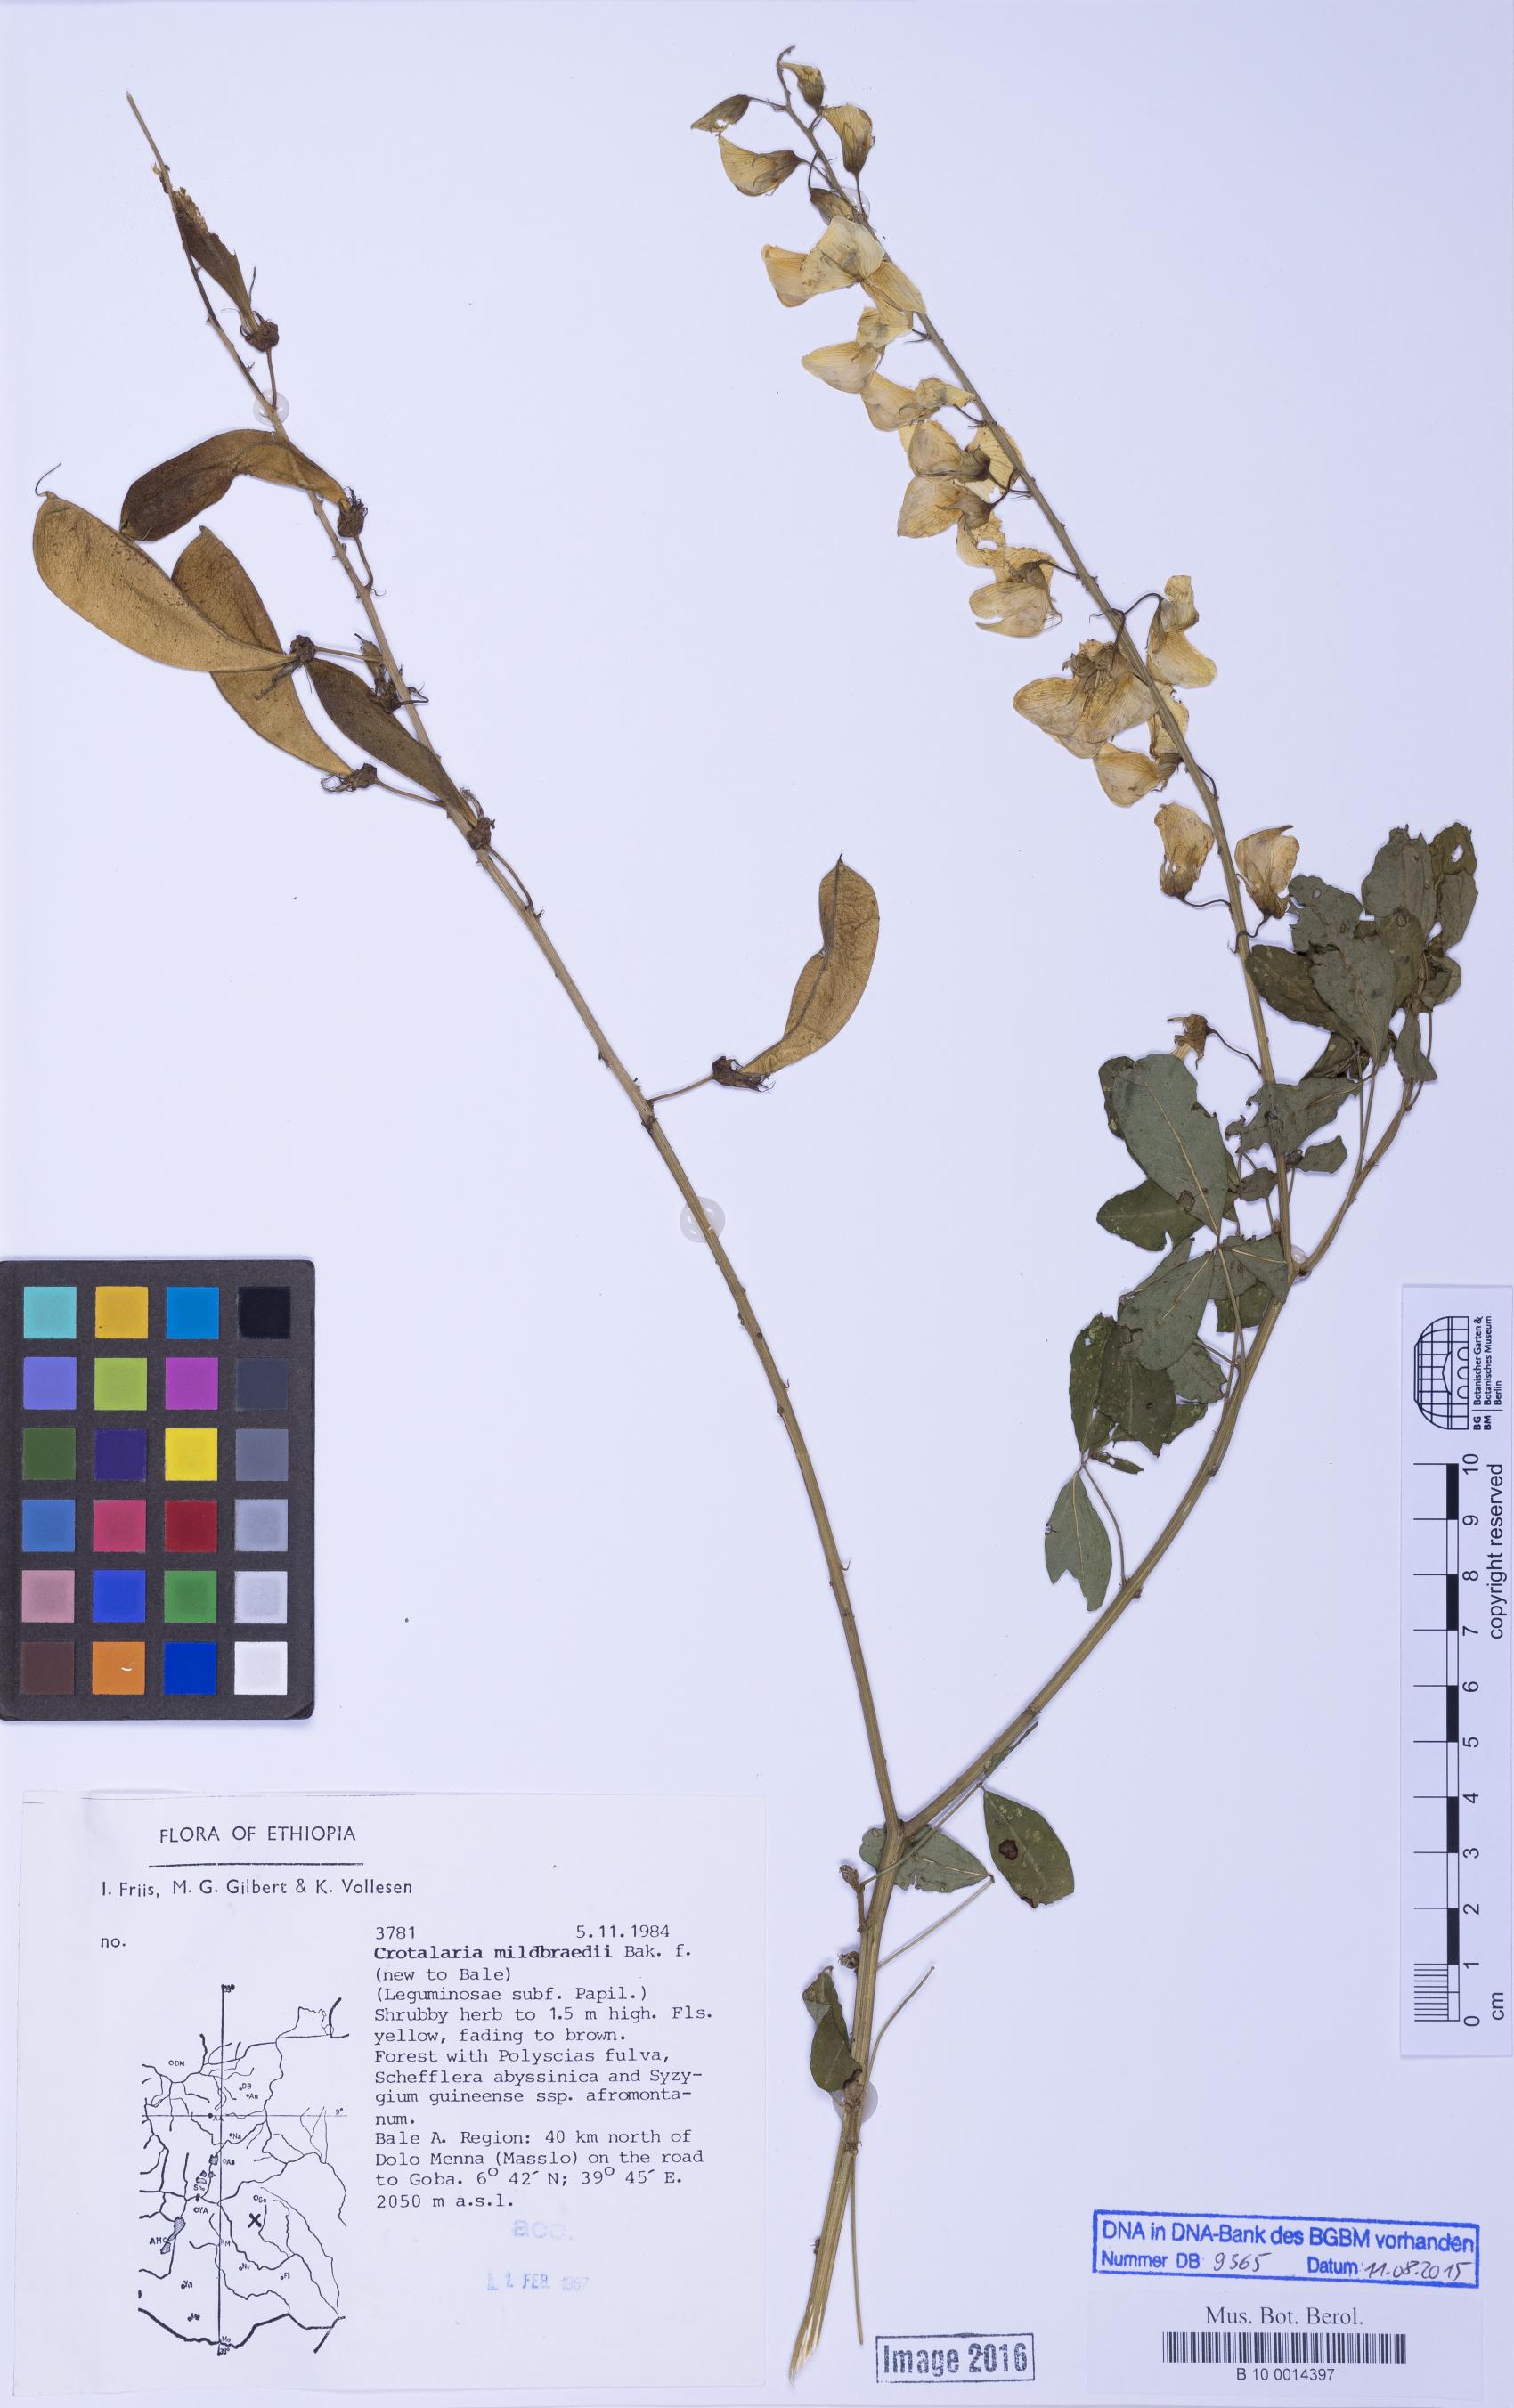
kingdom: Plantae
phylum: Tracheophyta
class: Magnoliopsida
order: Fabales
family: Fabaceae
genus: Crotalaria
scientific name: Crotalaria mildbraedii
